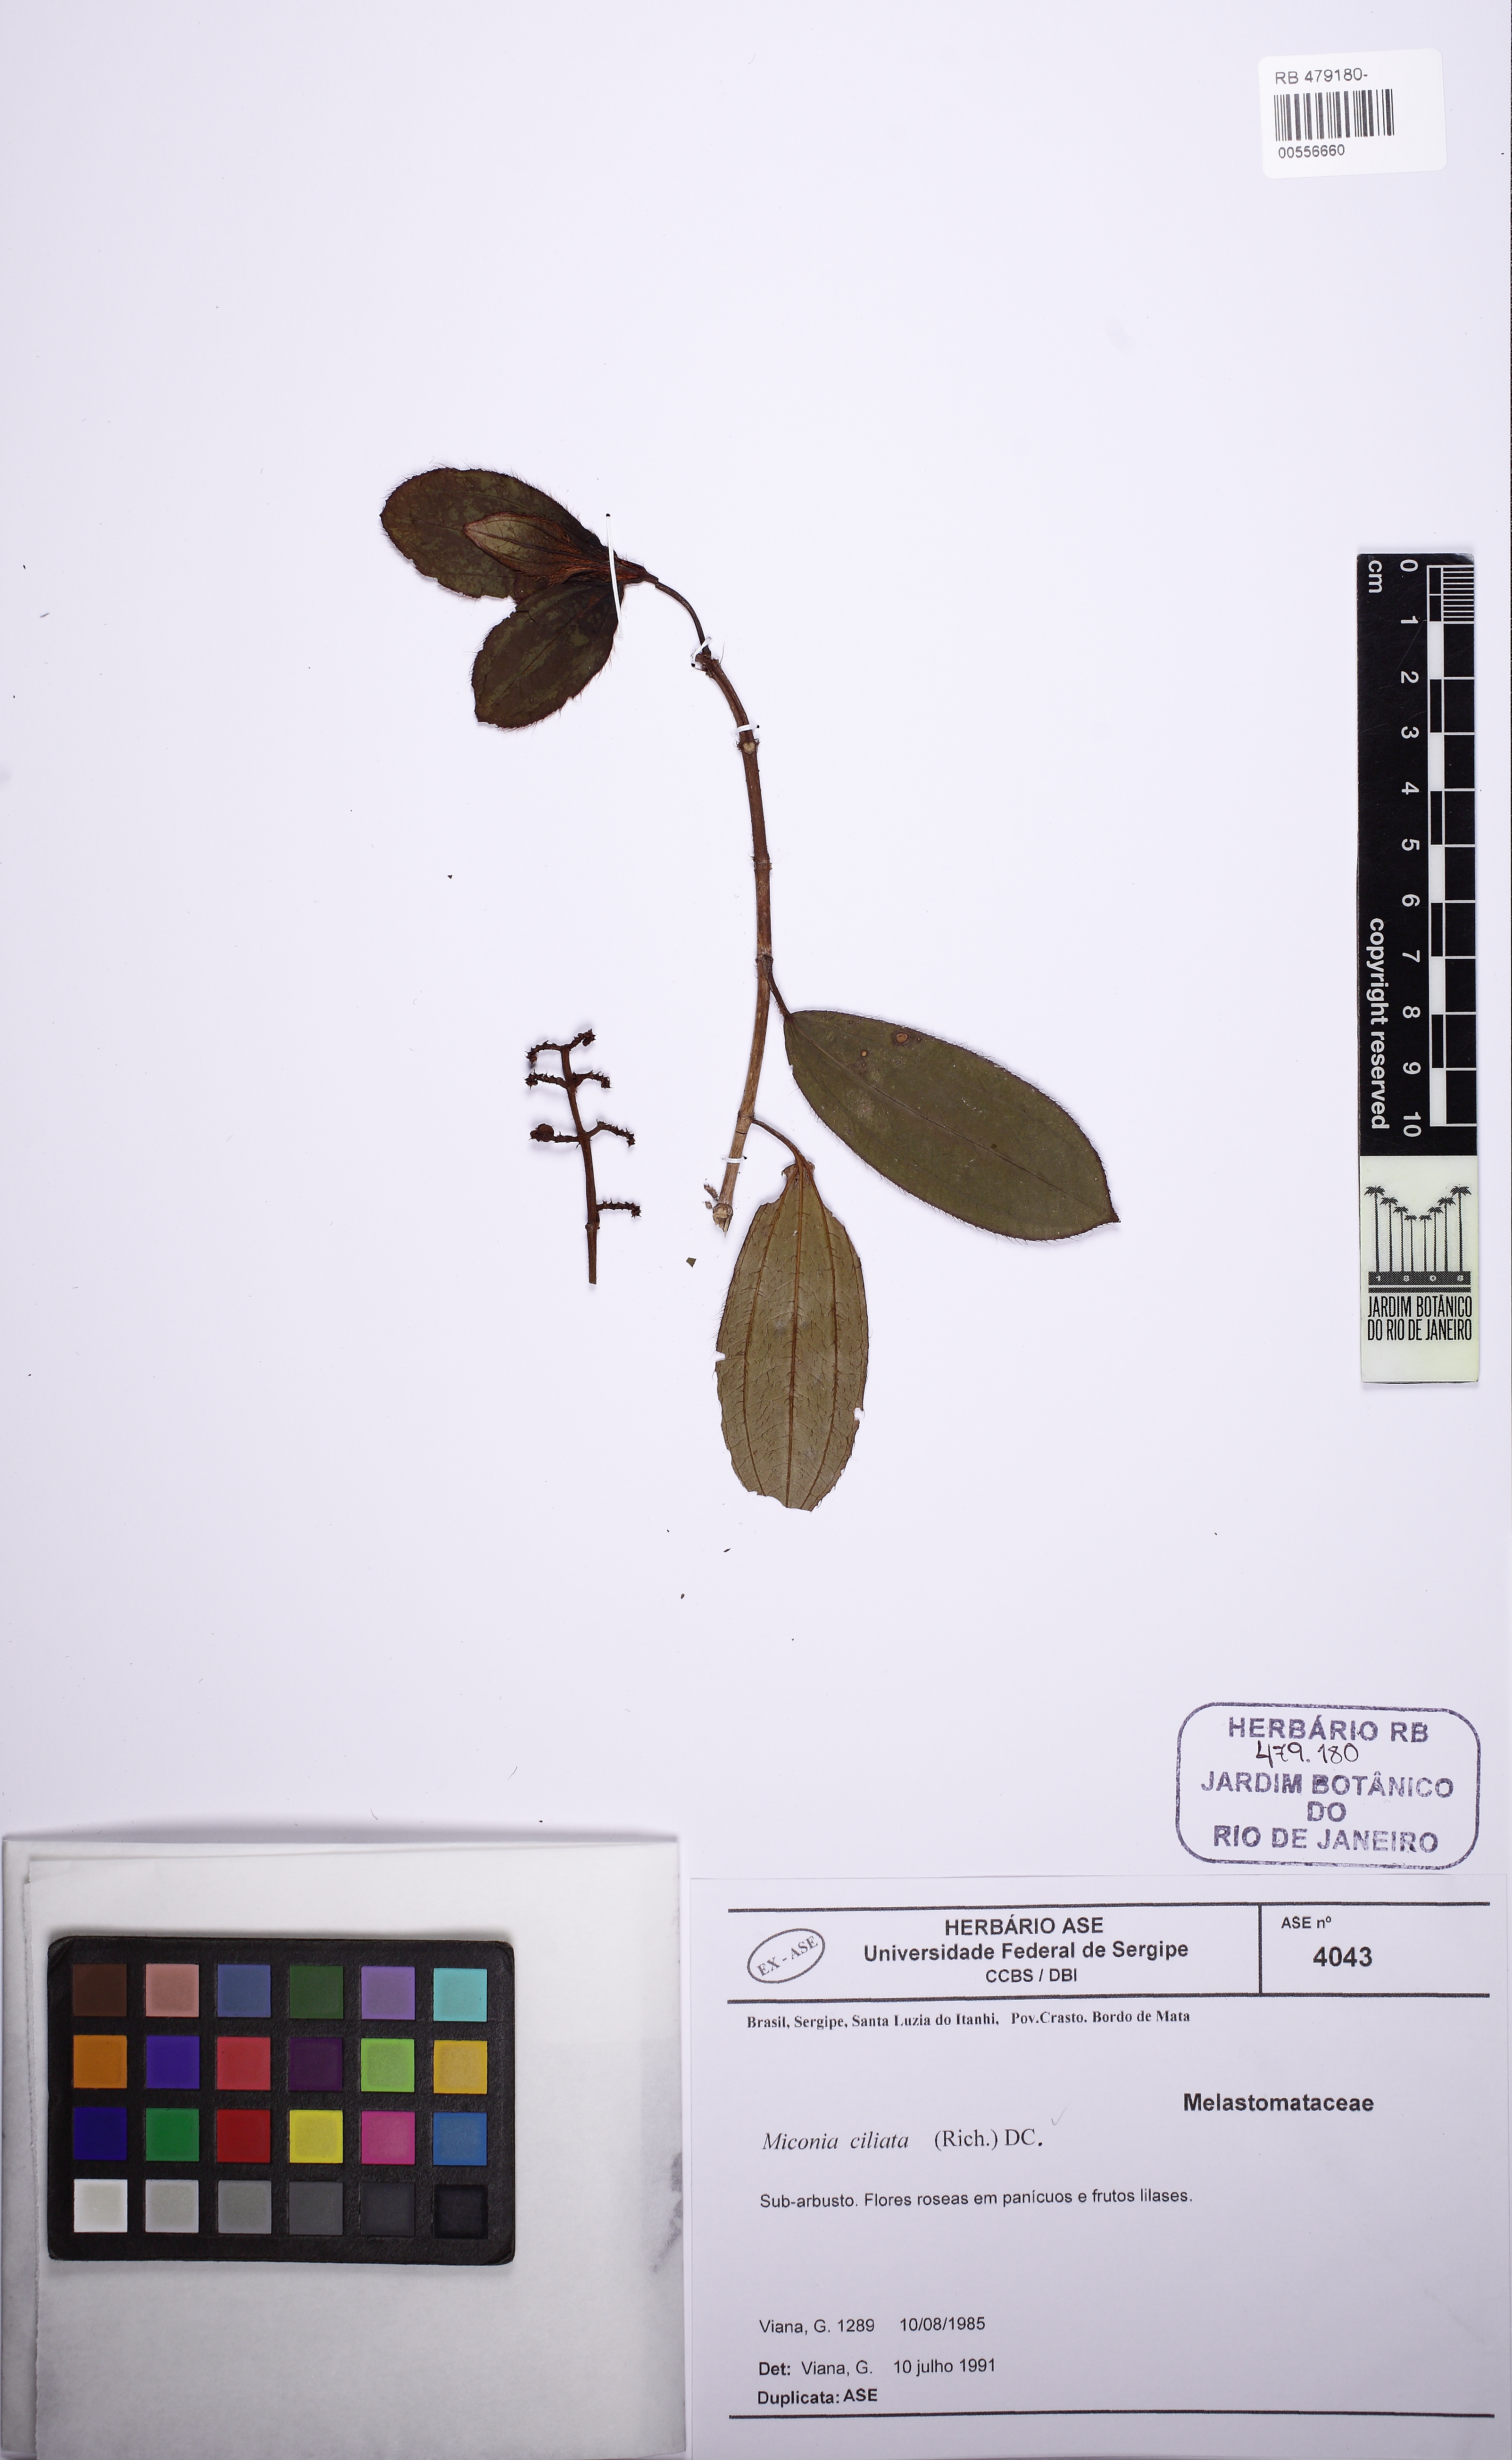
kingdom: Plantae
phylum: Tracheophyta
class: Magnoliopsida
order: Myrtales
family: Melastomataceae
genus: Miconia
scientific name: Miconia ciliata
